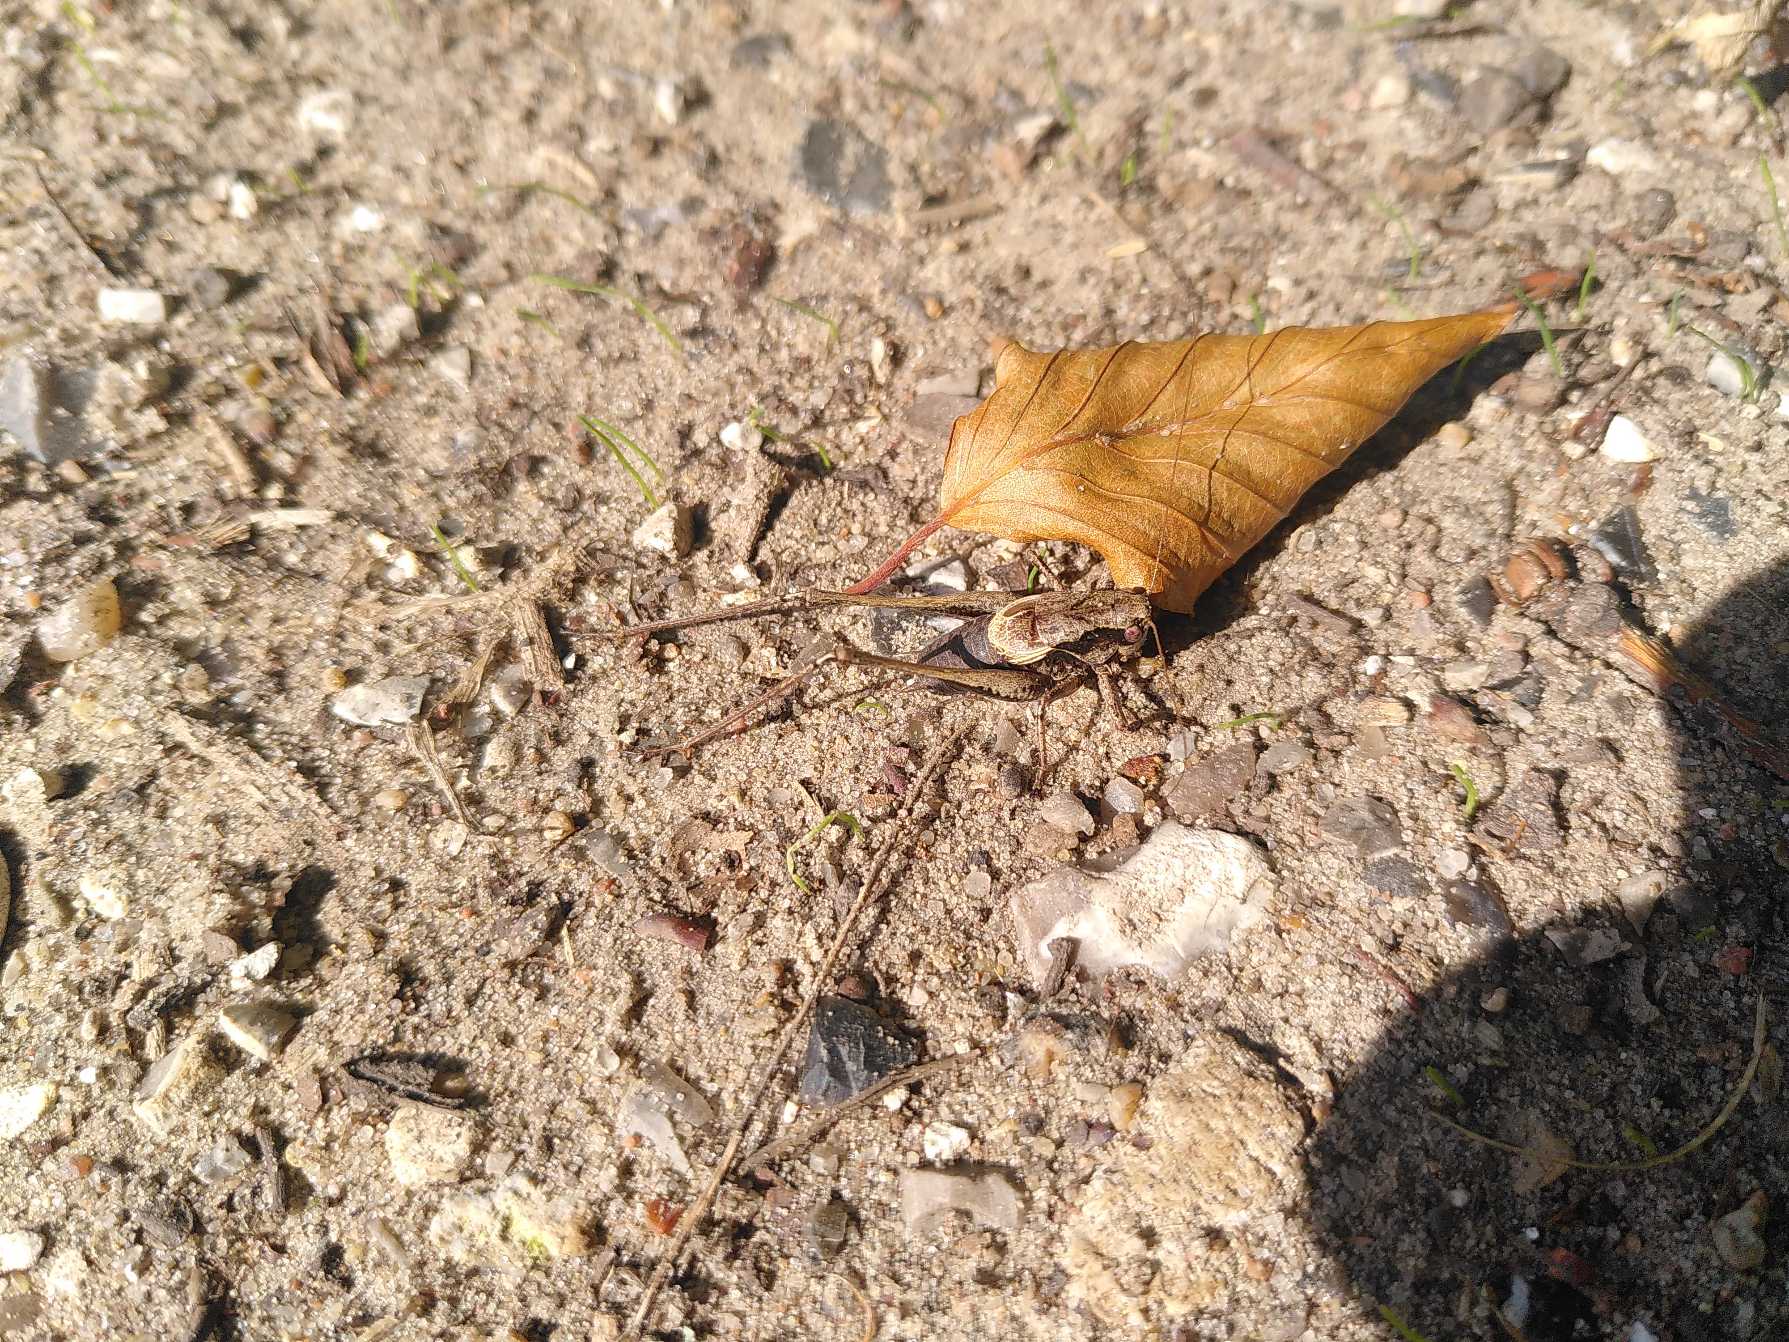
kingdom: Animalia
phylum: Arthropoda
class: Insecta
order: Orthoptera
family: Tettigoniidae
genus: Pholidoptera
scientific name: Pholidoptera griseoaptera
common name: Buskgræshoppe
